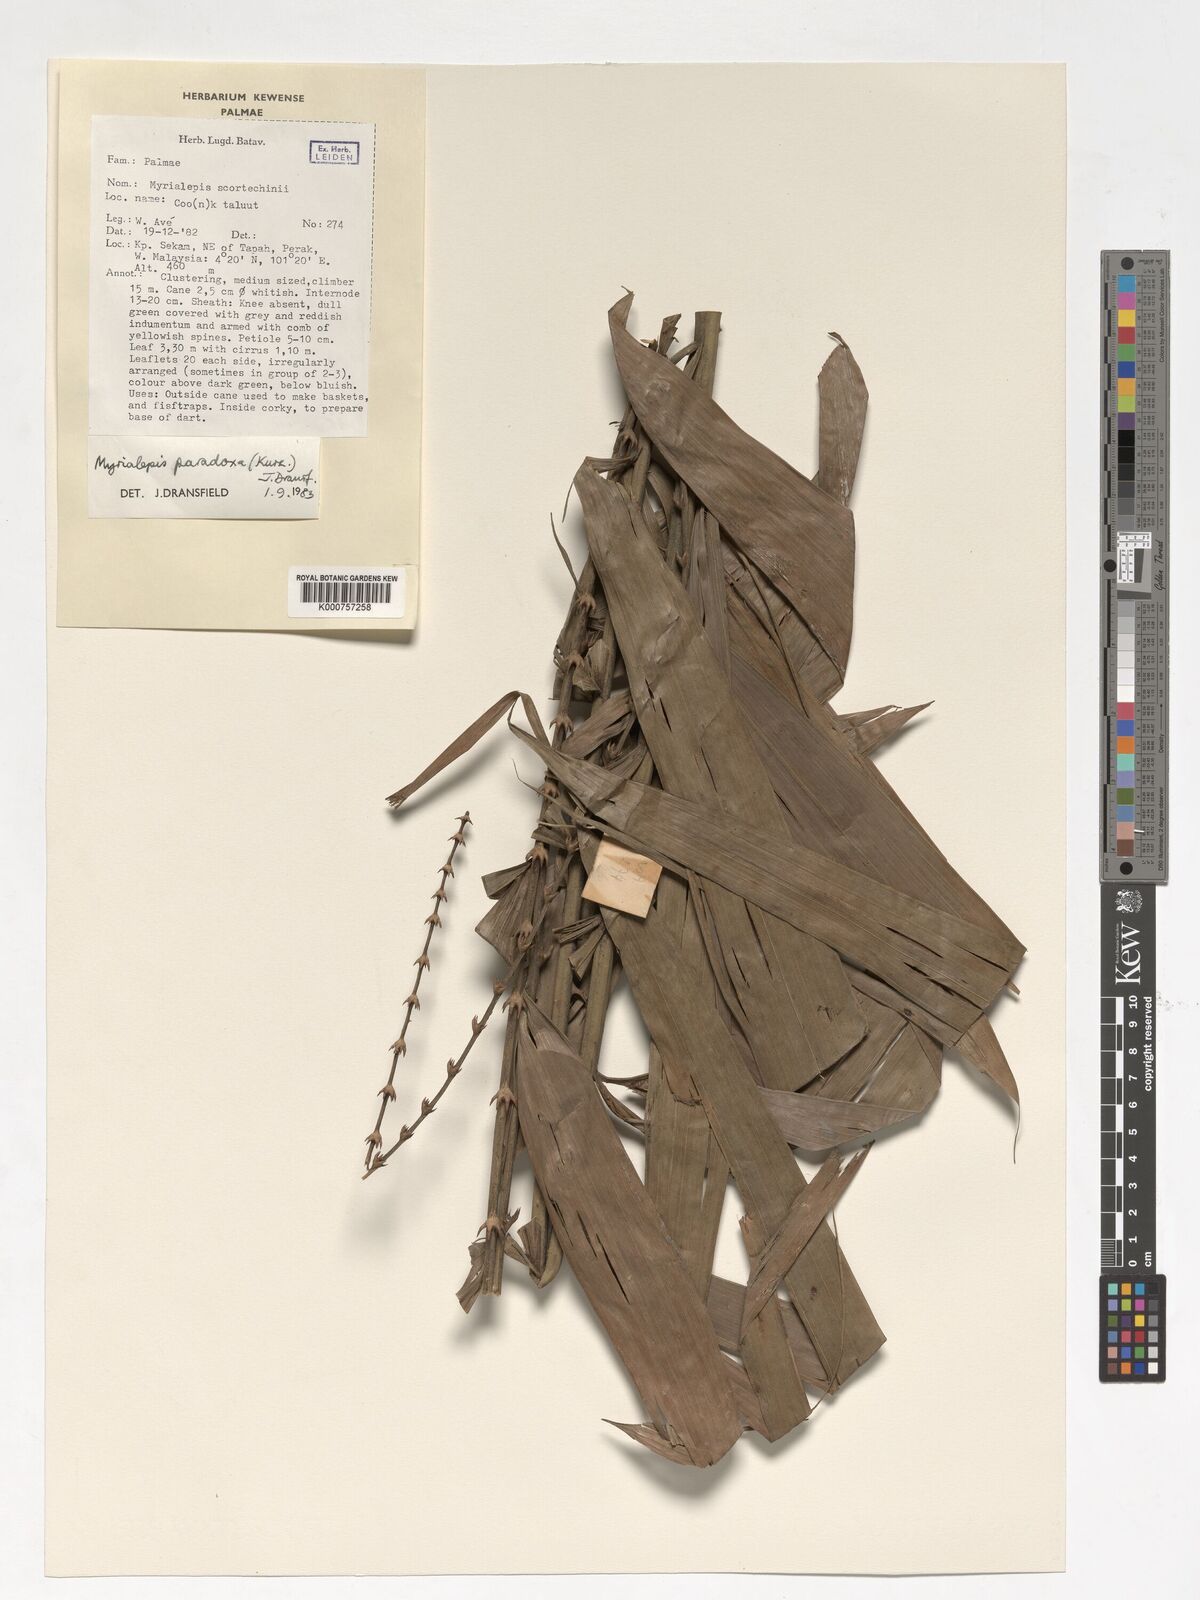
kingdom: Plantae
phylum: Tracheophyta
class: Liliopsida
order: Arecales
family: Arecaceae
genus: Myrialepis
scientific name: Myrialepis paradoxa
